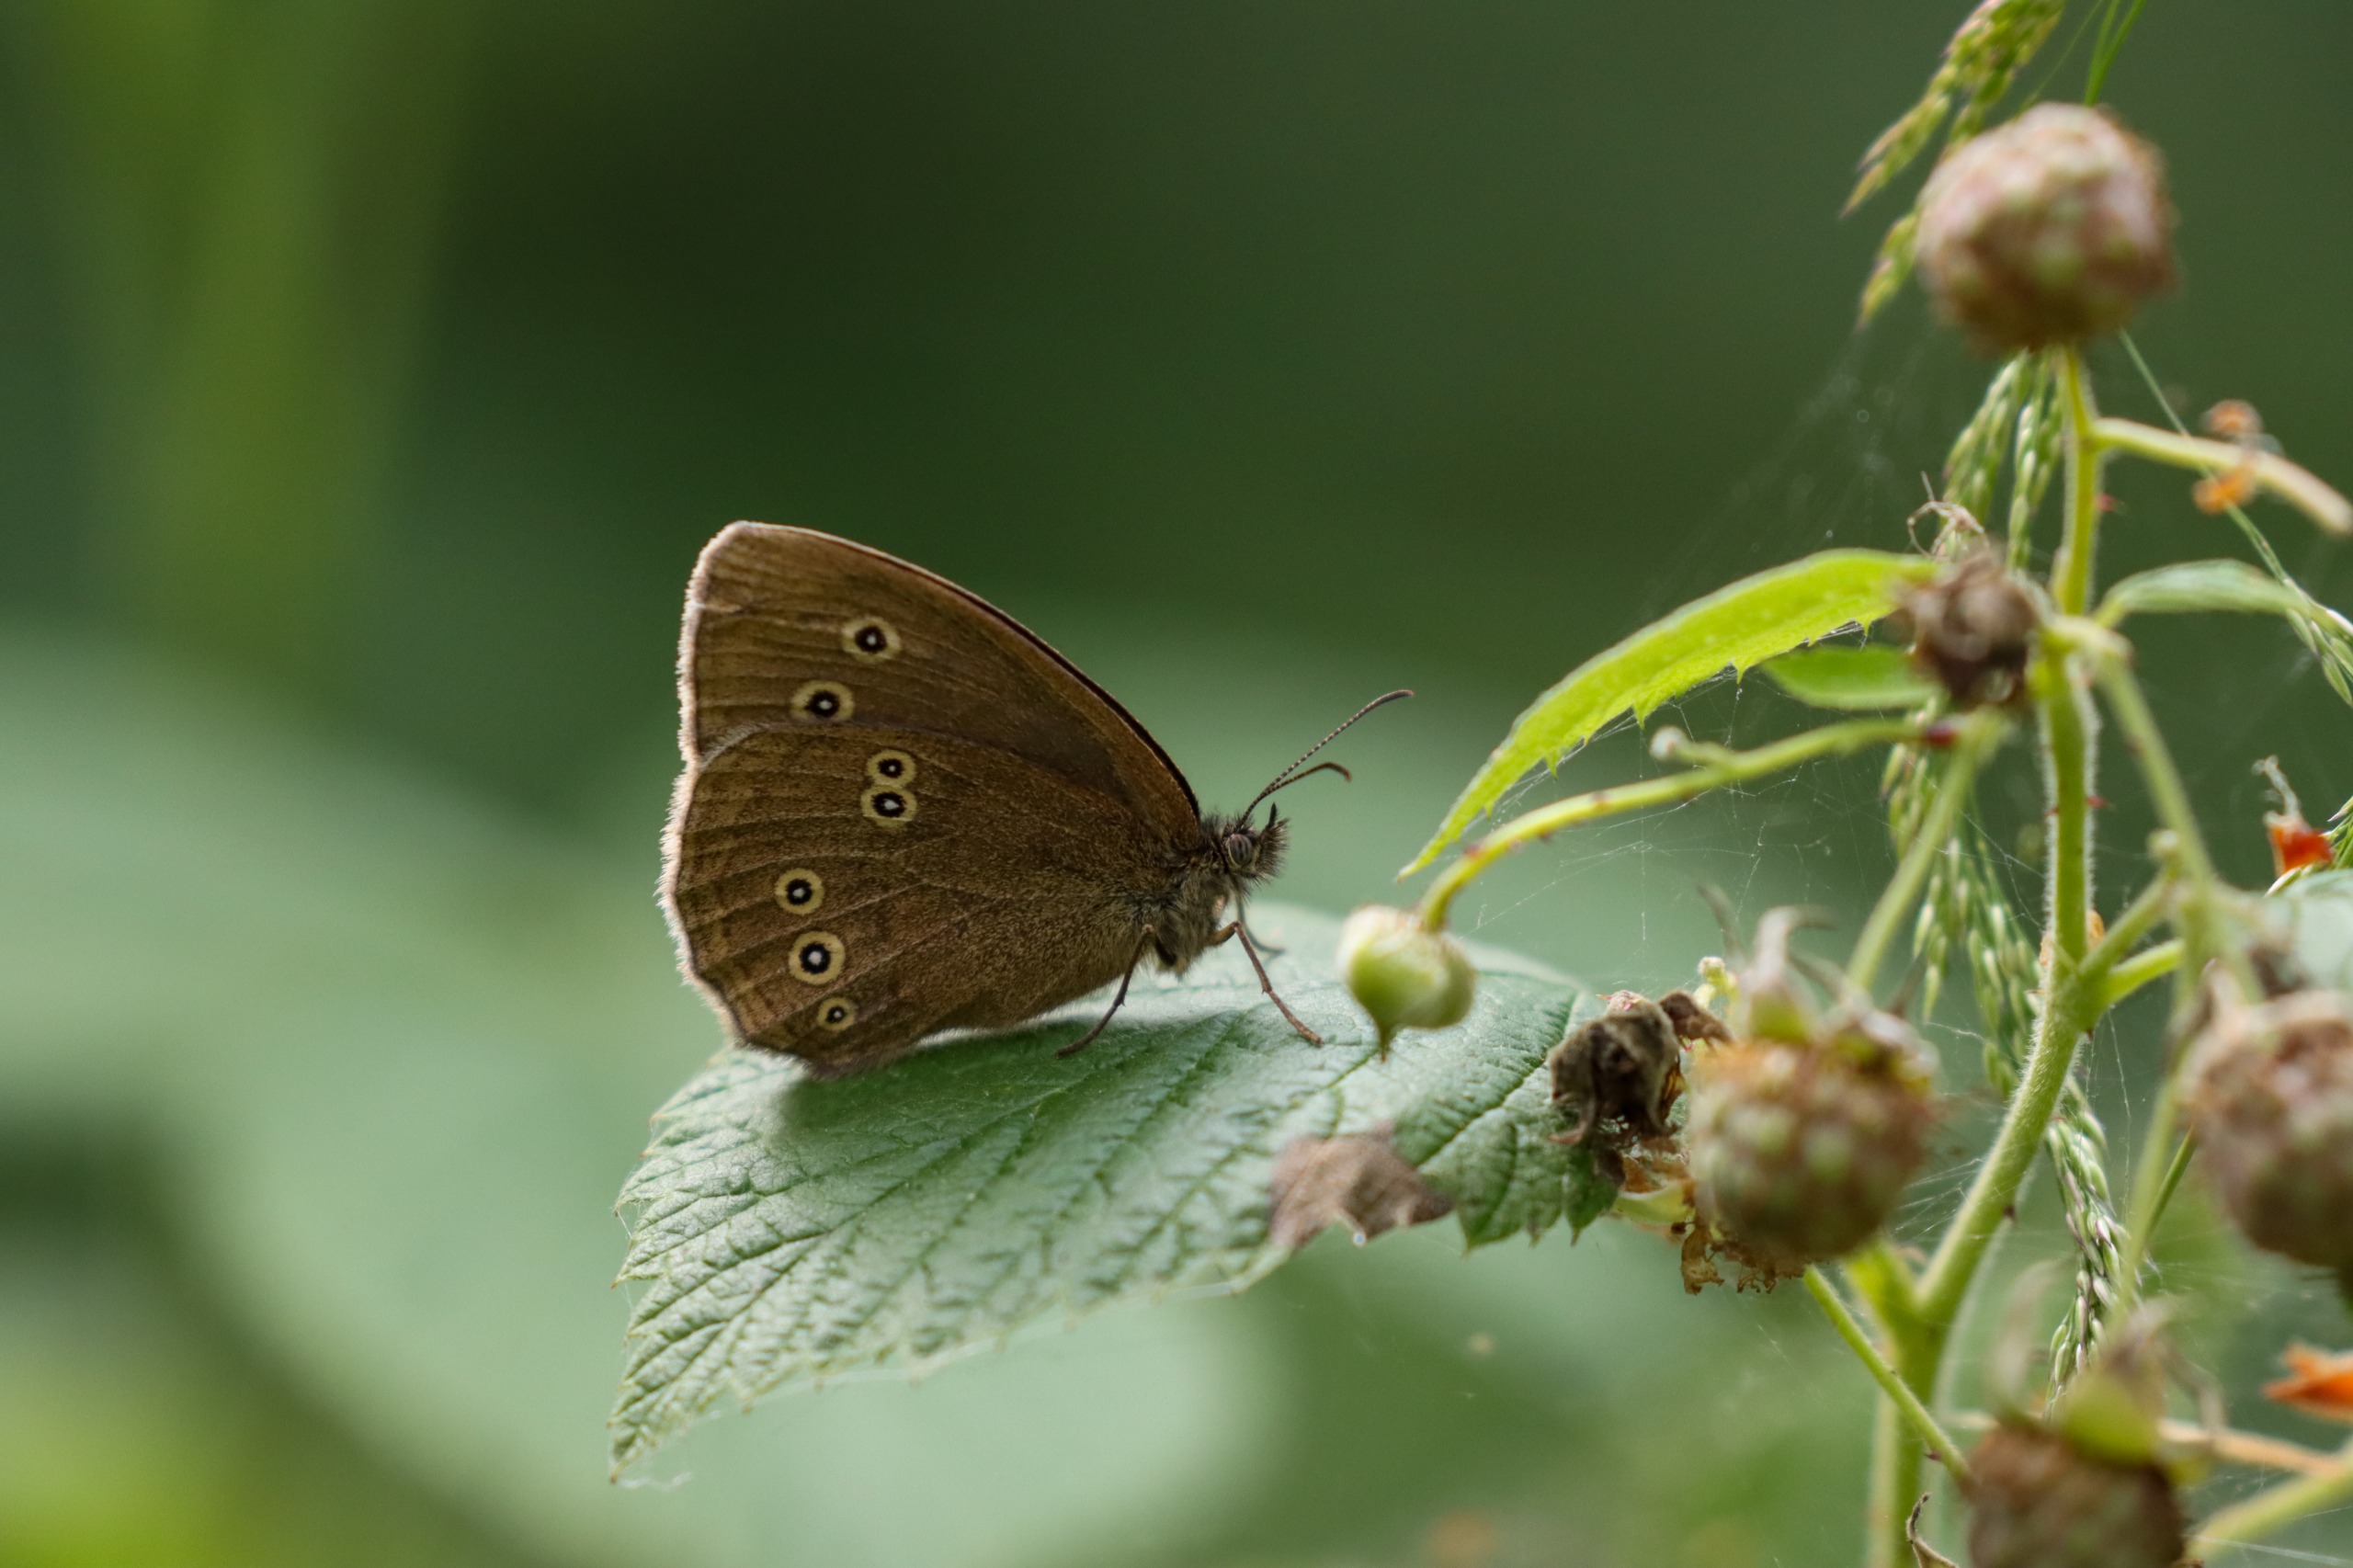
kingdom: Animalia
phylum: Arthropoda
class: Insecta
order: Lepidoptera
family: Nymphalidae
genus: Aphantopus
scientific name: Aphantopus hyperantus
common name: Engrandøje
